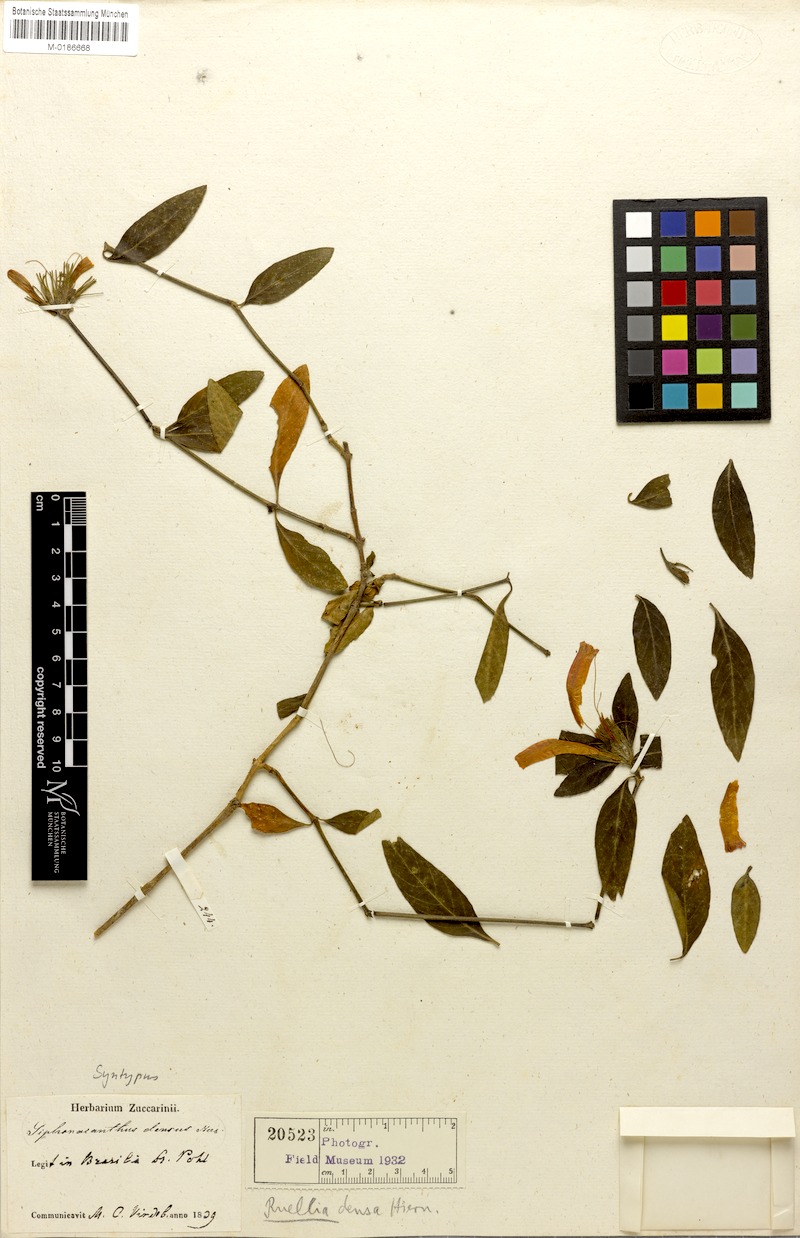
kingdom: Plantae
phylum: Tracheophyta
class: Magnoliopsida
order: Lamiales
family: Acanthaceae
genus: Ruellia
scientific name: Ruellia densa
